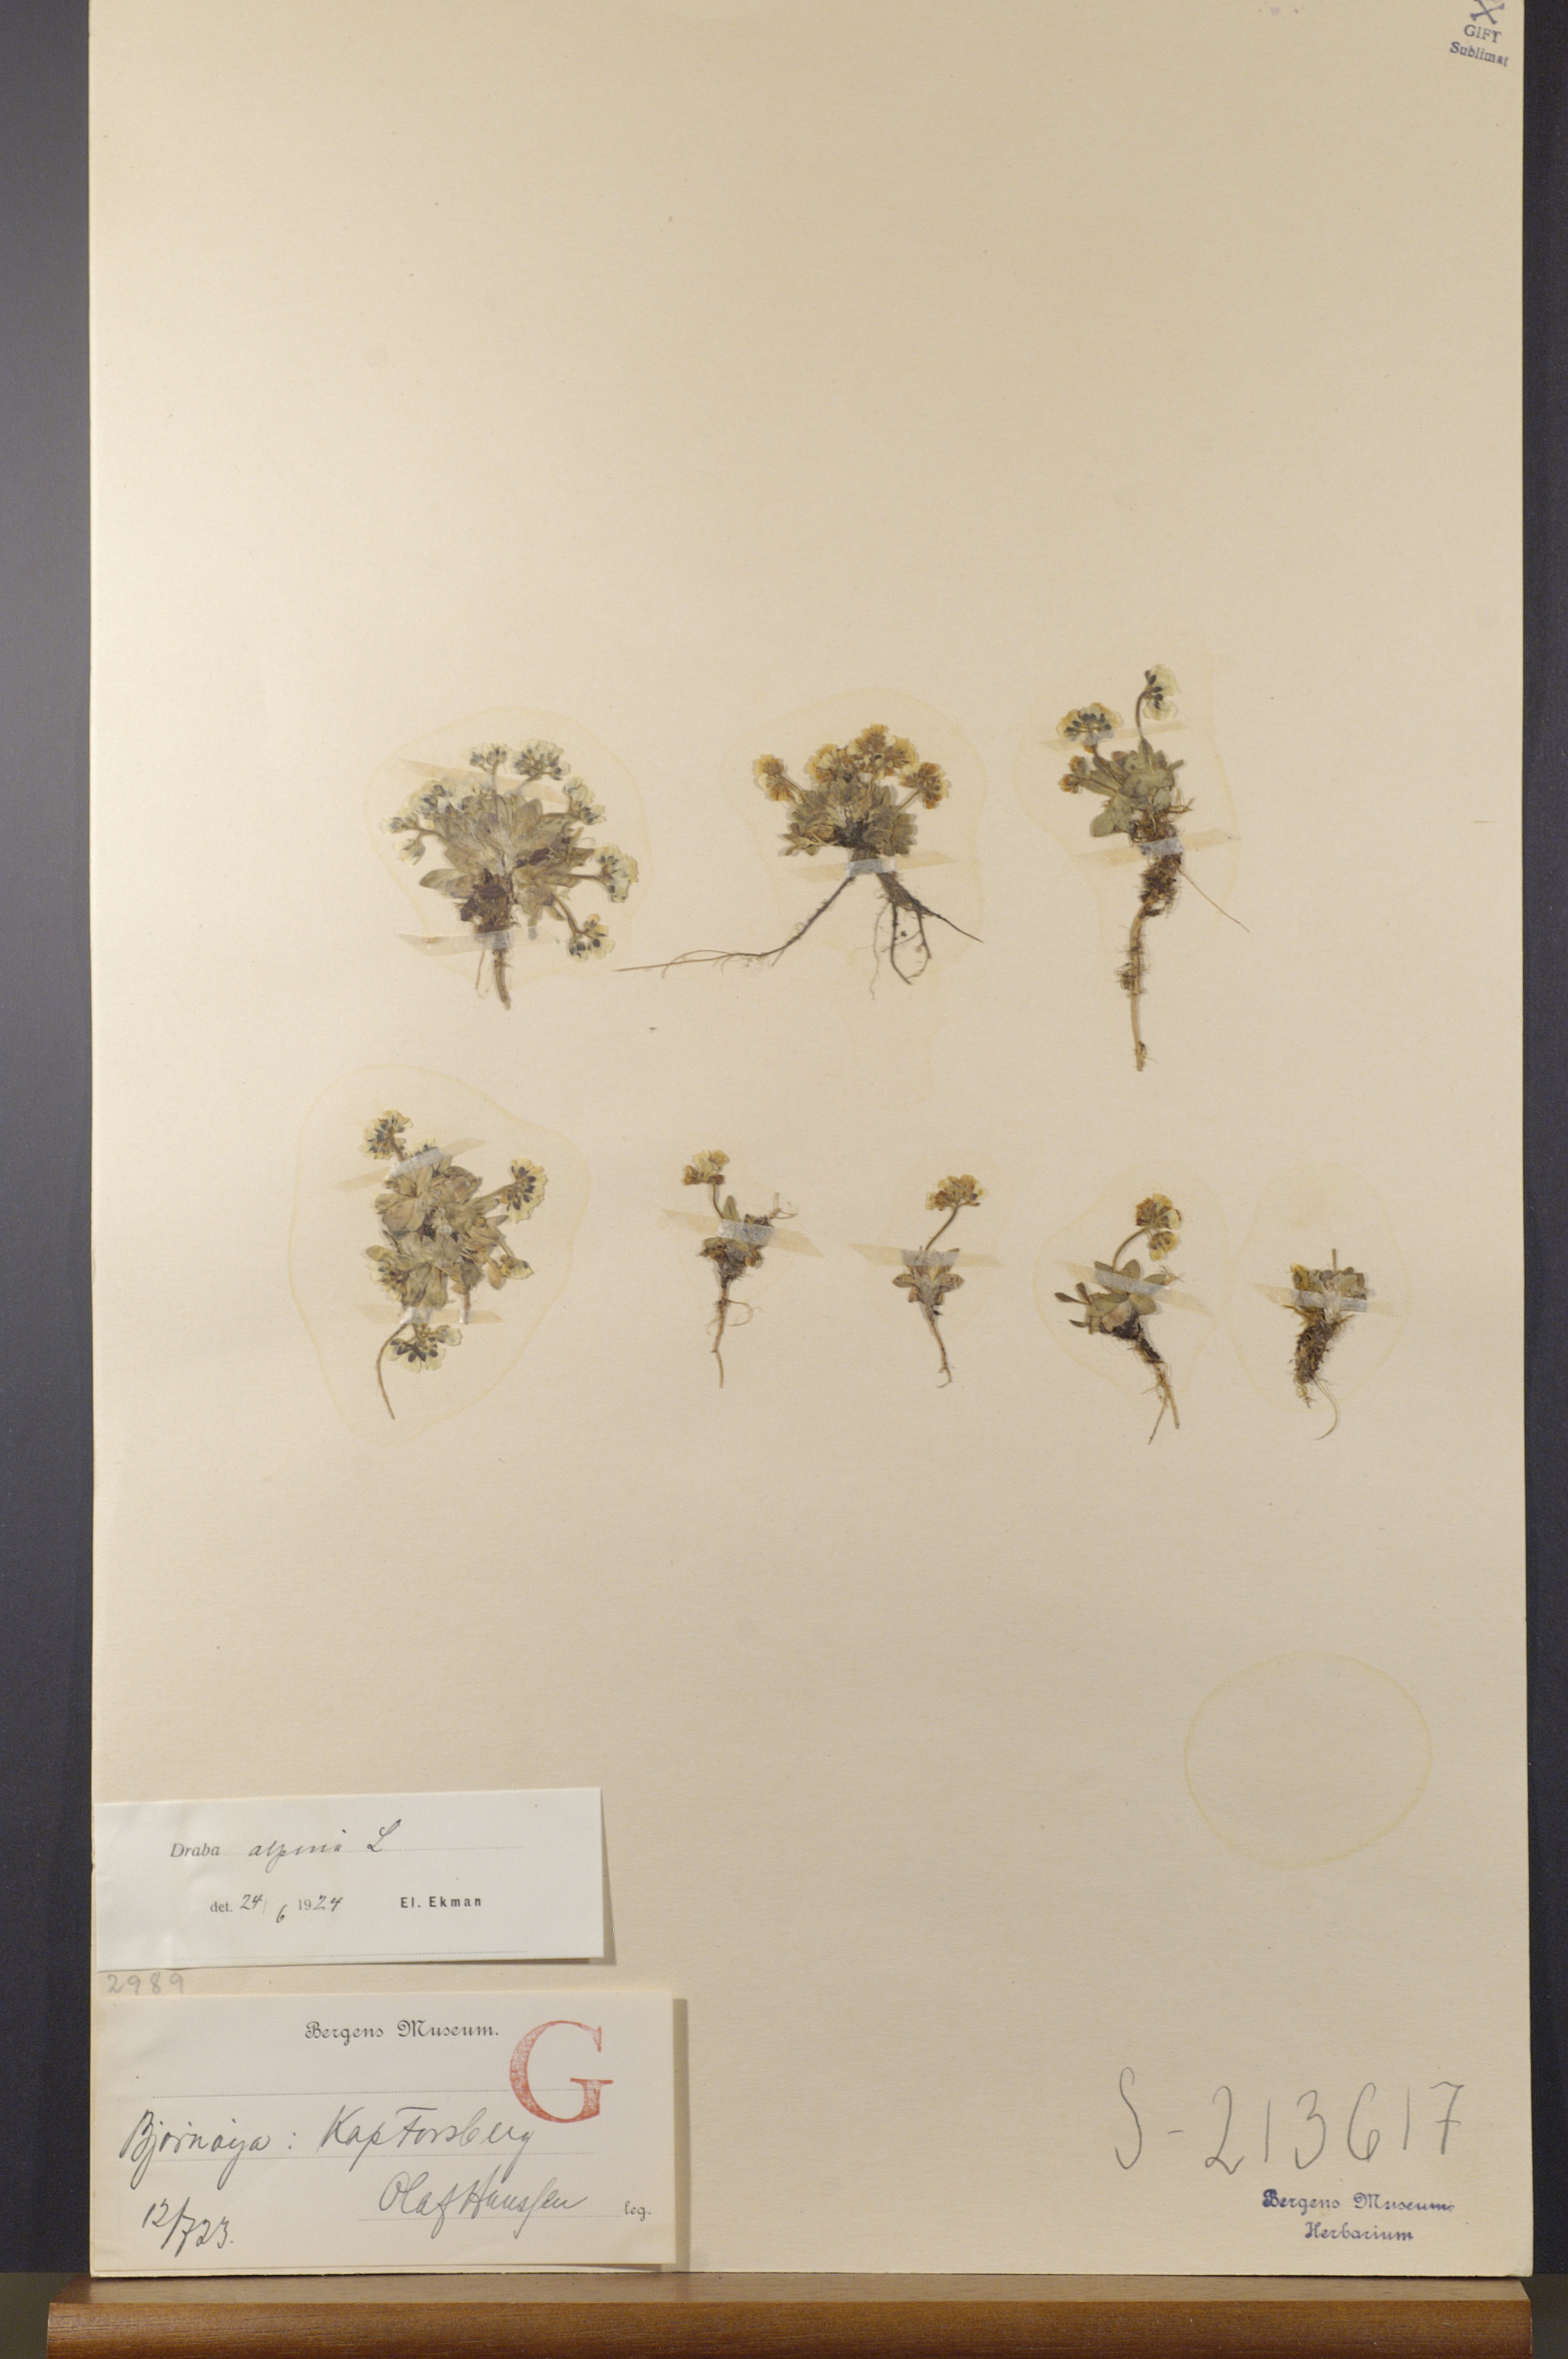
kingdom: Plantae
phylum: Tracheophyta
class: Magnoliopsida
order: Brassicales
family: Brassicaceae
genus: Draba
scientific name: Draba alpina
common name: Alpine draba
